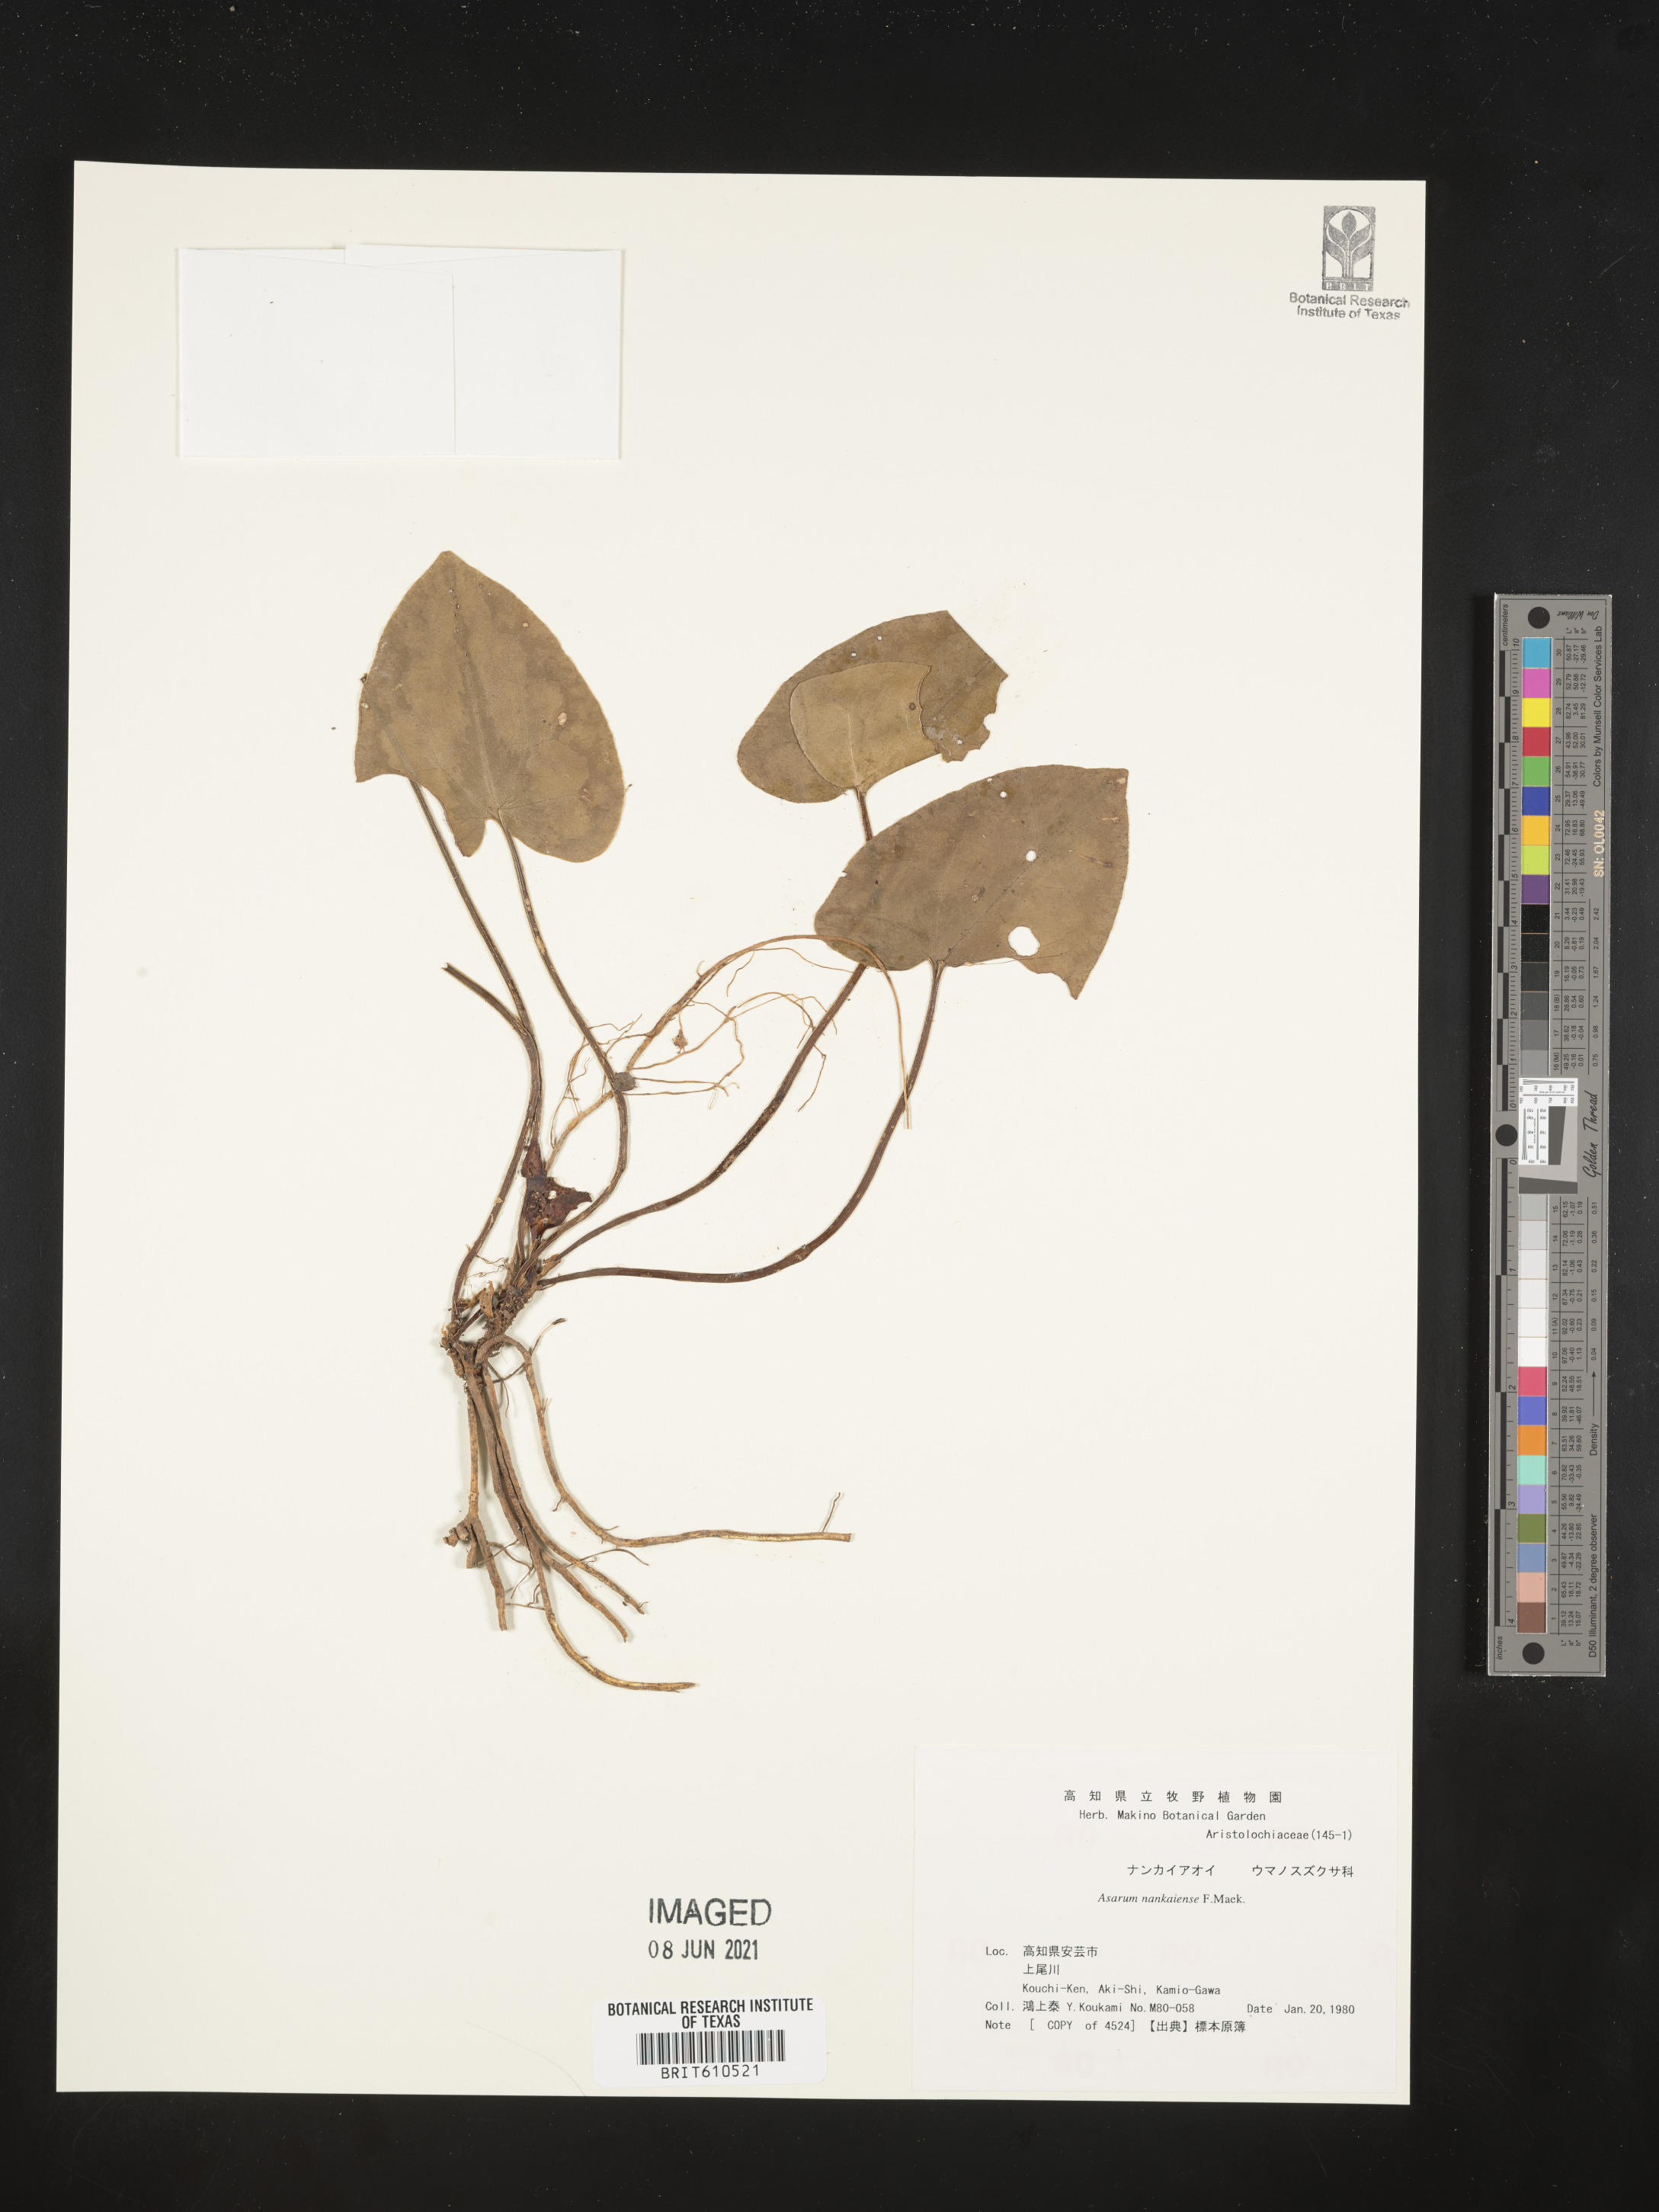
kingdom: Plantae
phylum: Tracheophyta
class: Magnoliopsida
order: Piperales
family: Aristolochiaceae
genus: Asarum
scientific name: Asarum nipponicum
